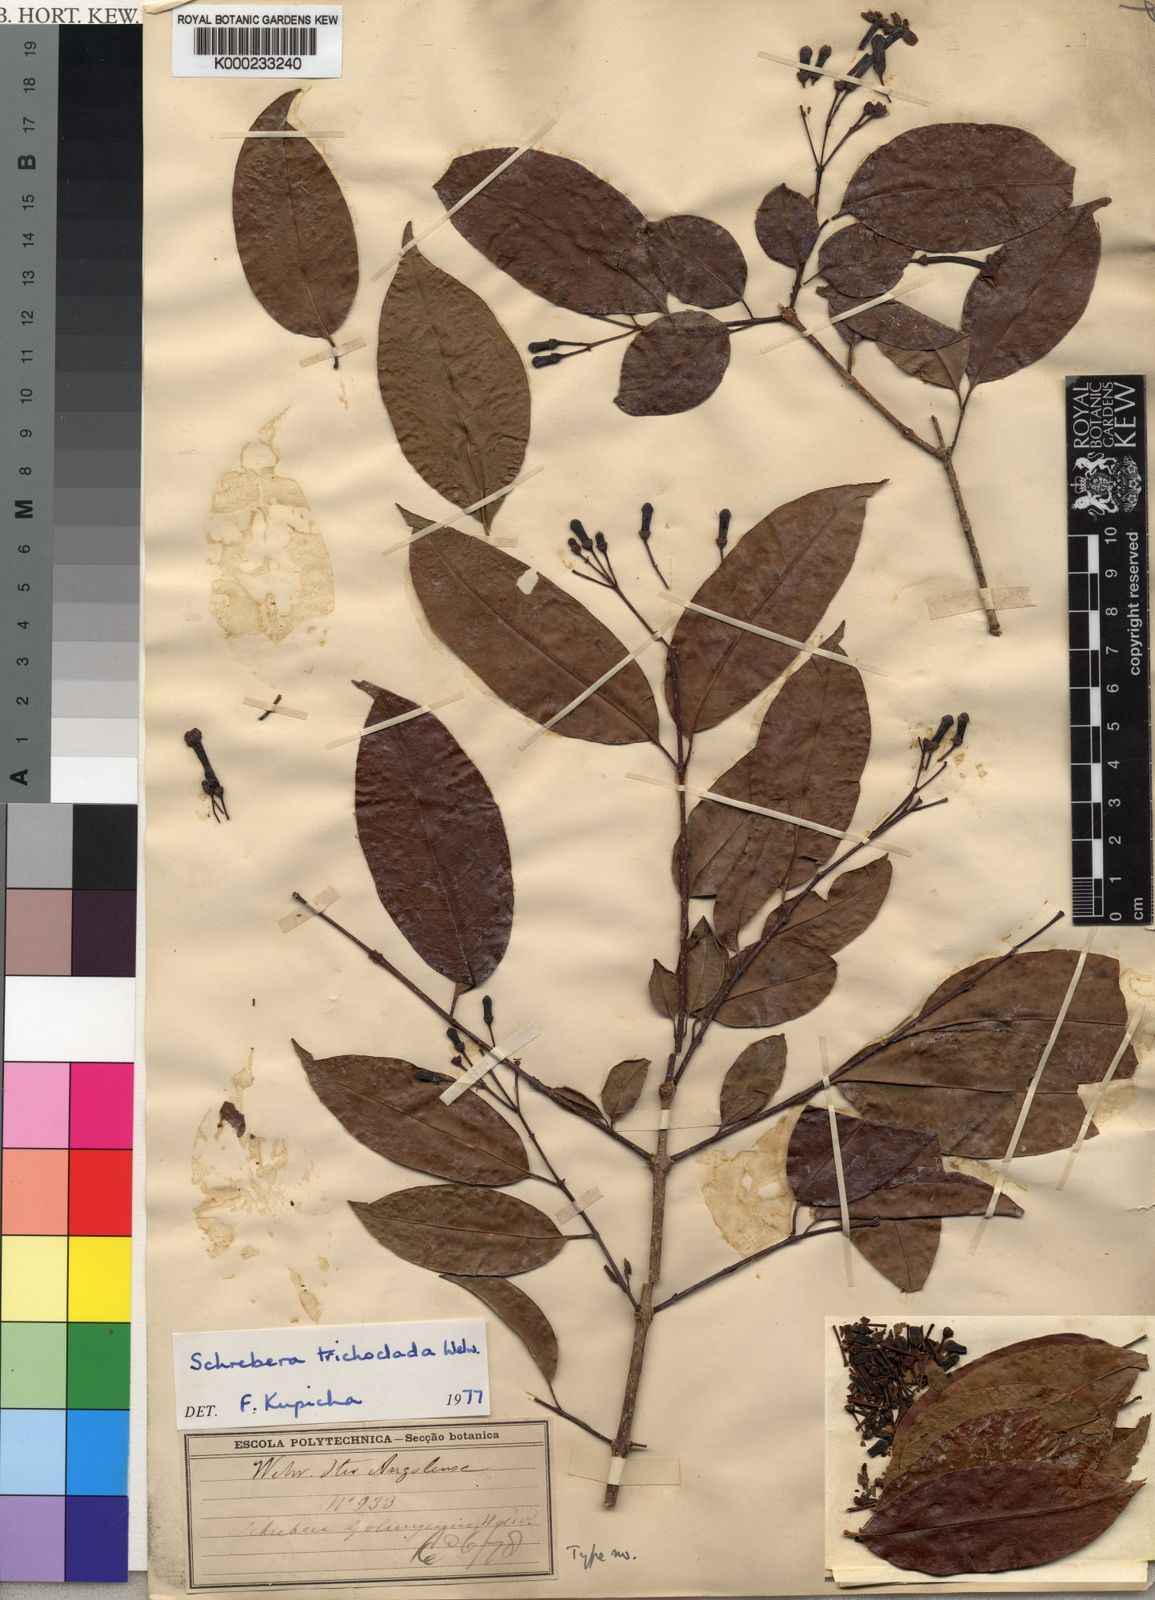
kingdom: Plantae
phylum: Tracheophyta
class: Magnoliopsida
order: Lamiales
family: Oleaceae
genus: Schrebera
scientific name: Schrebera trichoclada
